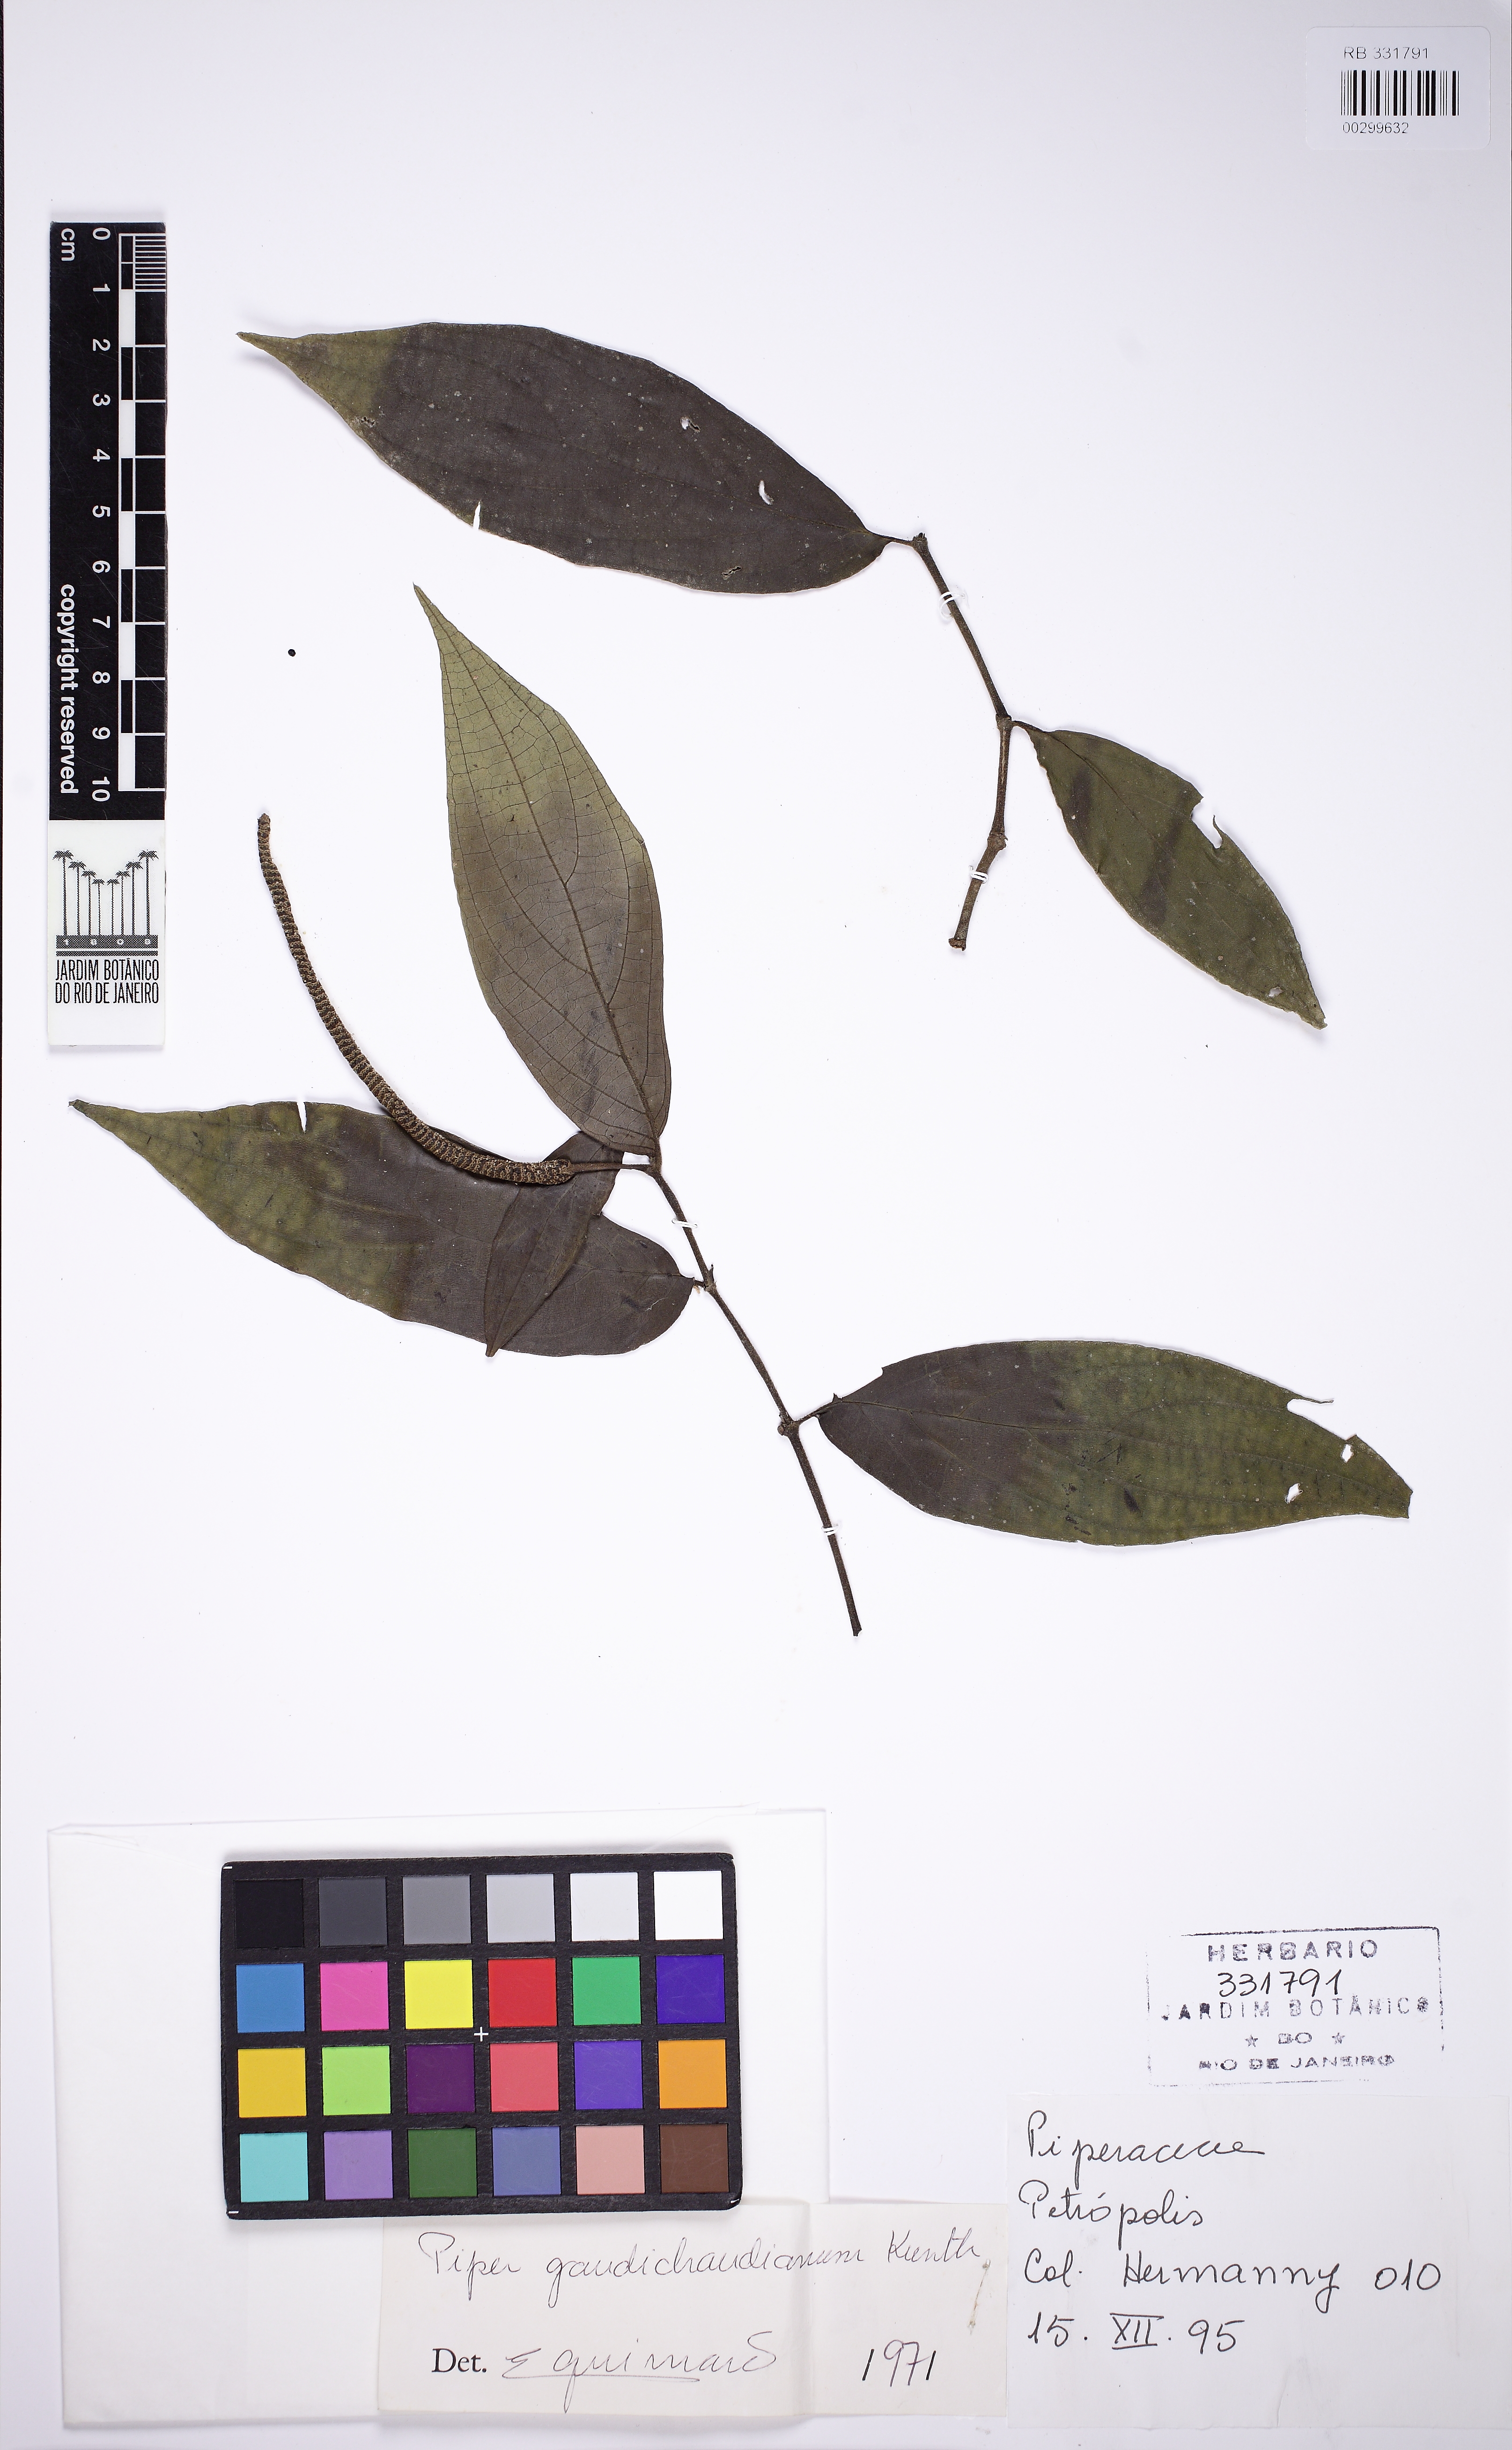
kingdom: Plantae
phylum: Tracheophyta
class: Magnoliopsida
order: Piperales
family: Piperaceae
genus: Piper
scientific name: Piper gaudichaudianum
